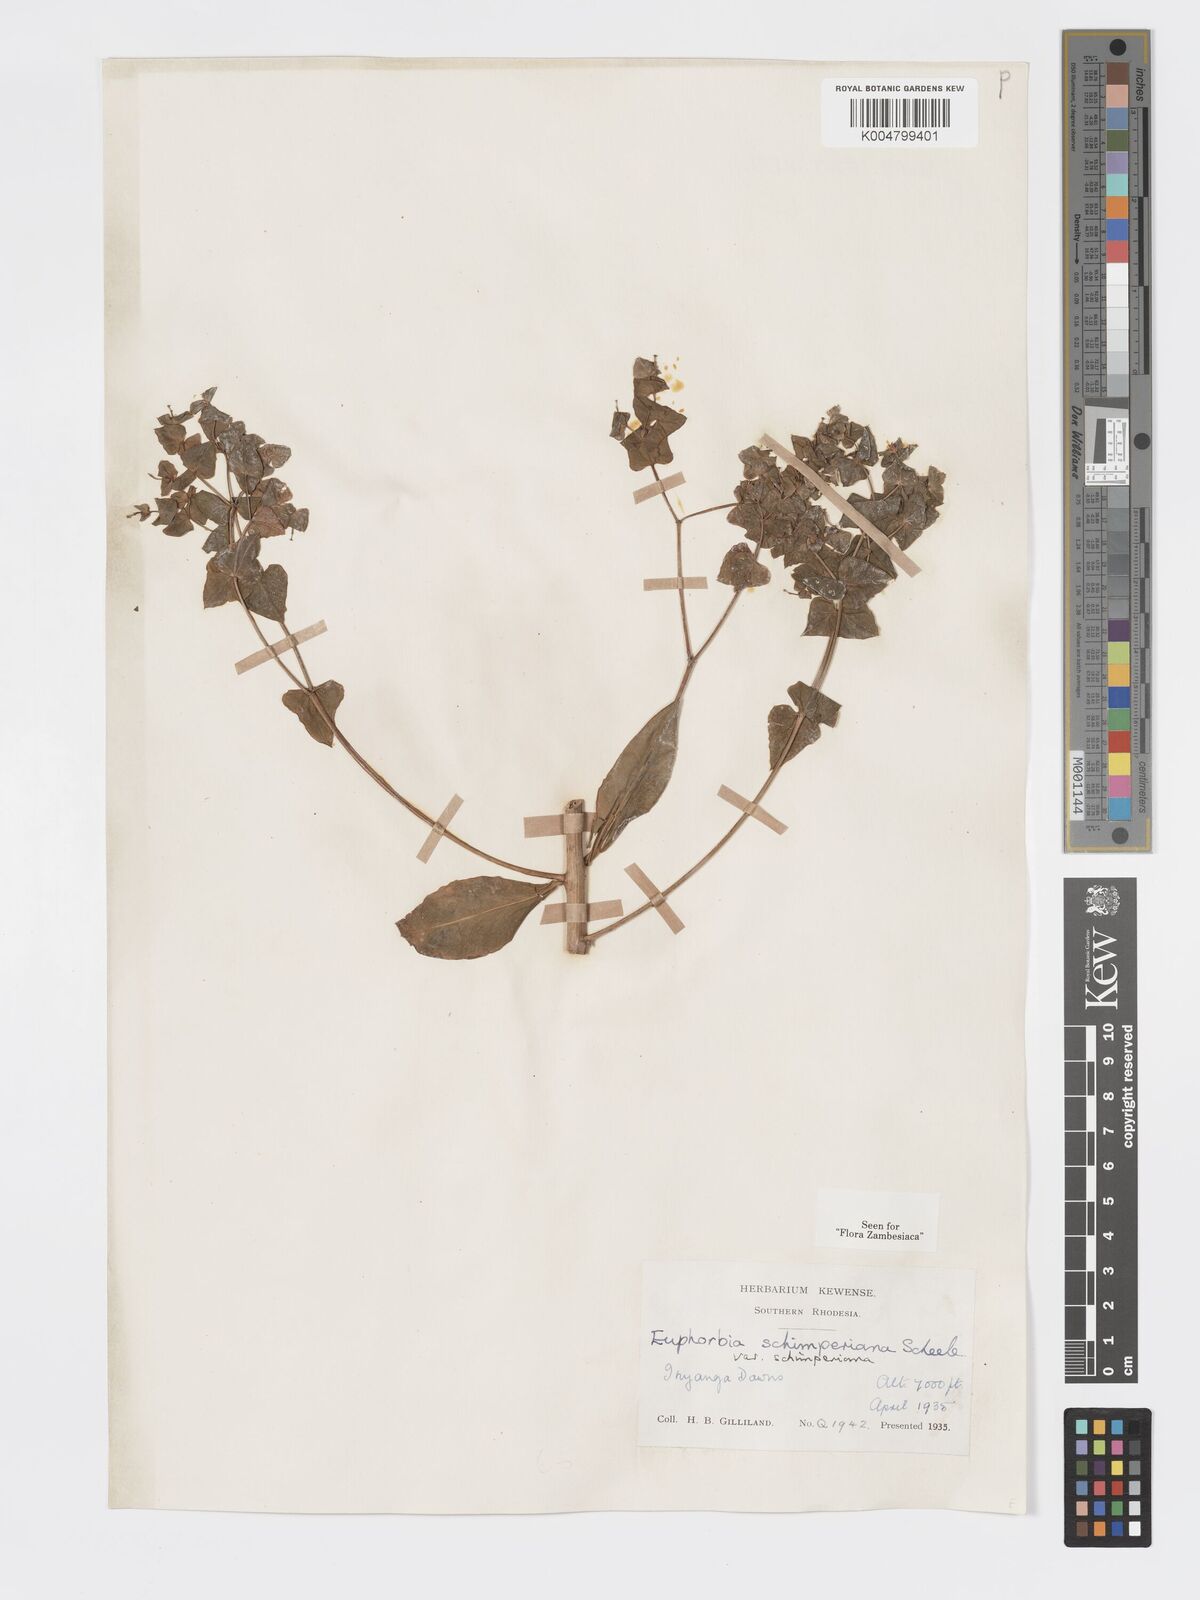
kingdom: Plantae
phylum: Tracheophyta
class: Magnoliopsida
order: Malpighiales
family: Euphorbiaceae
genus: Euphorbia
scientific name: Euphorbia schimperiana
